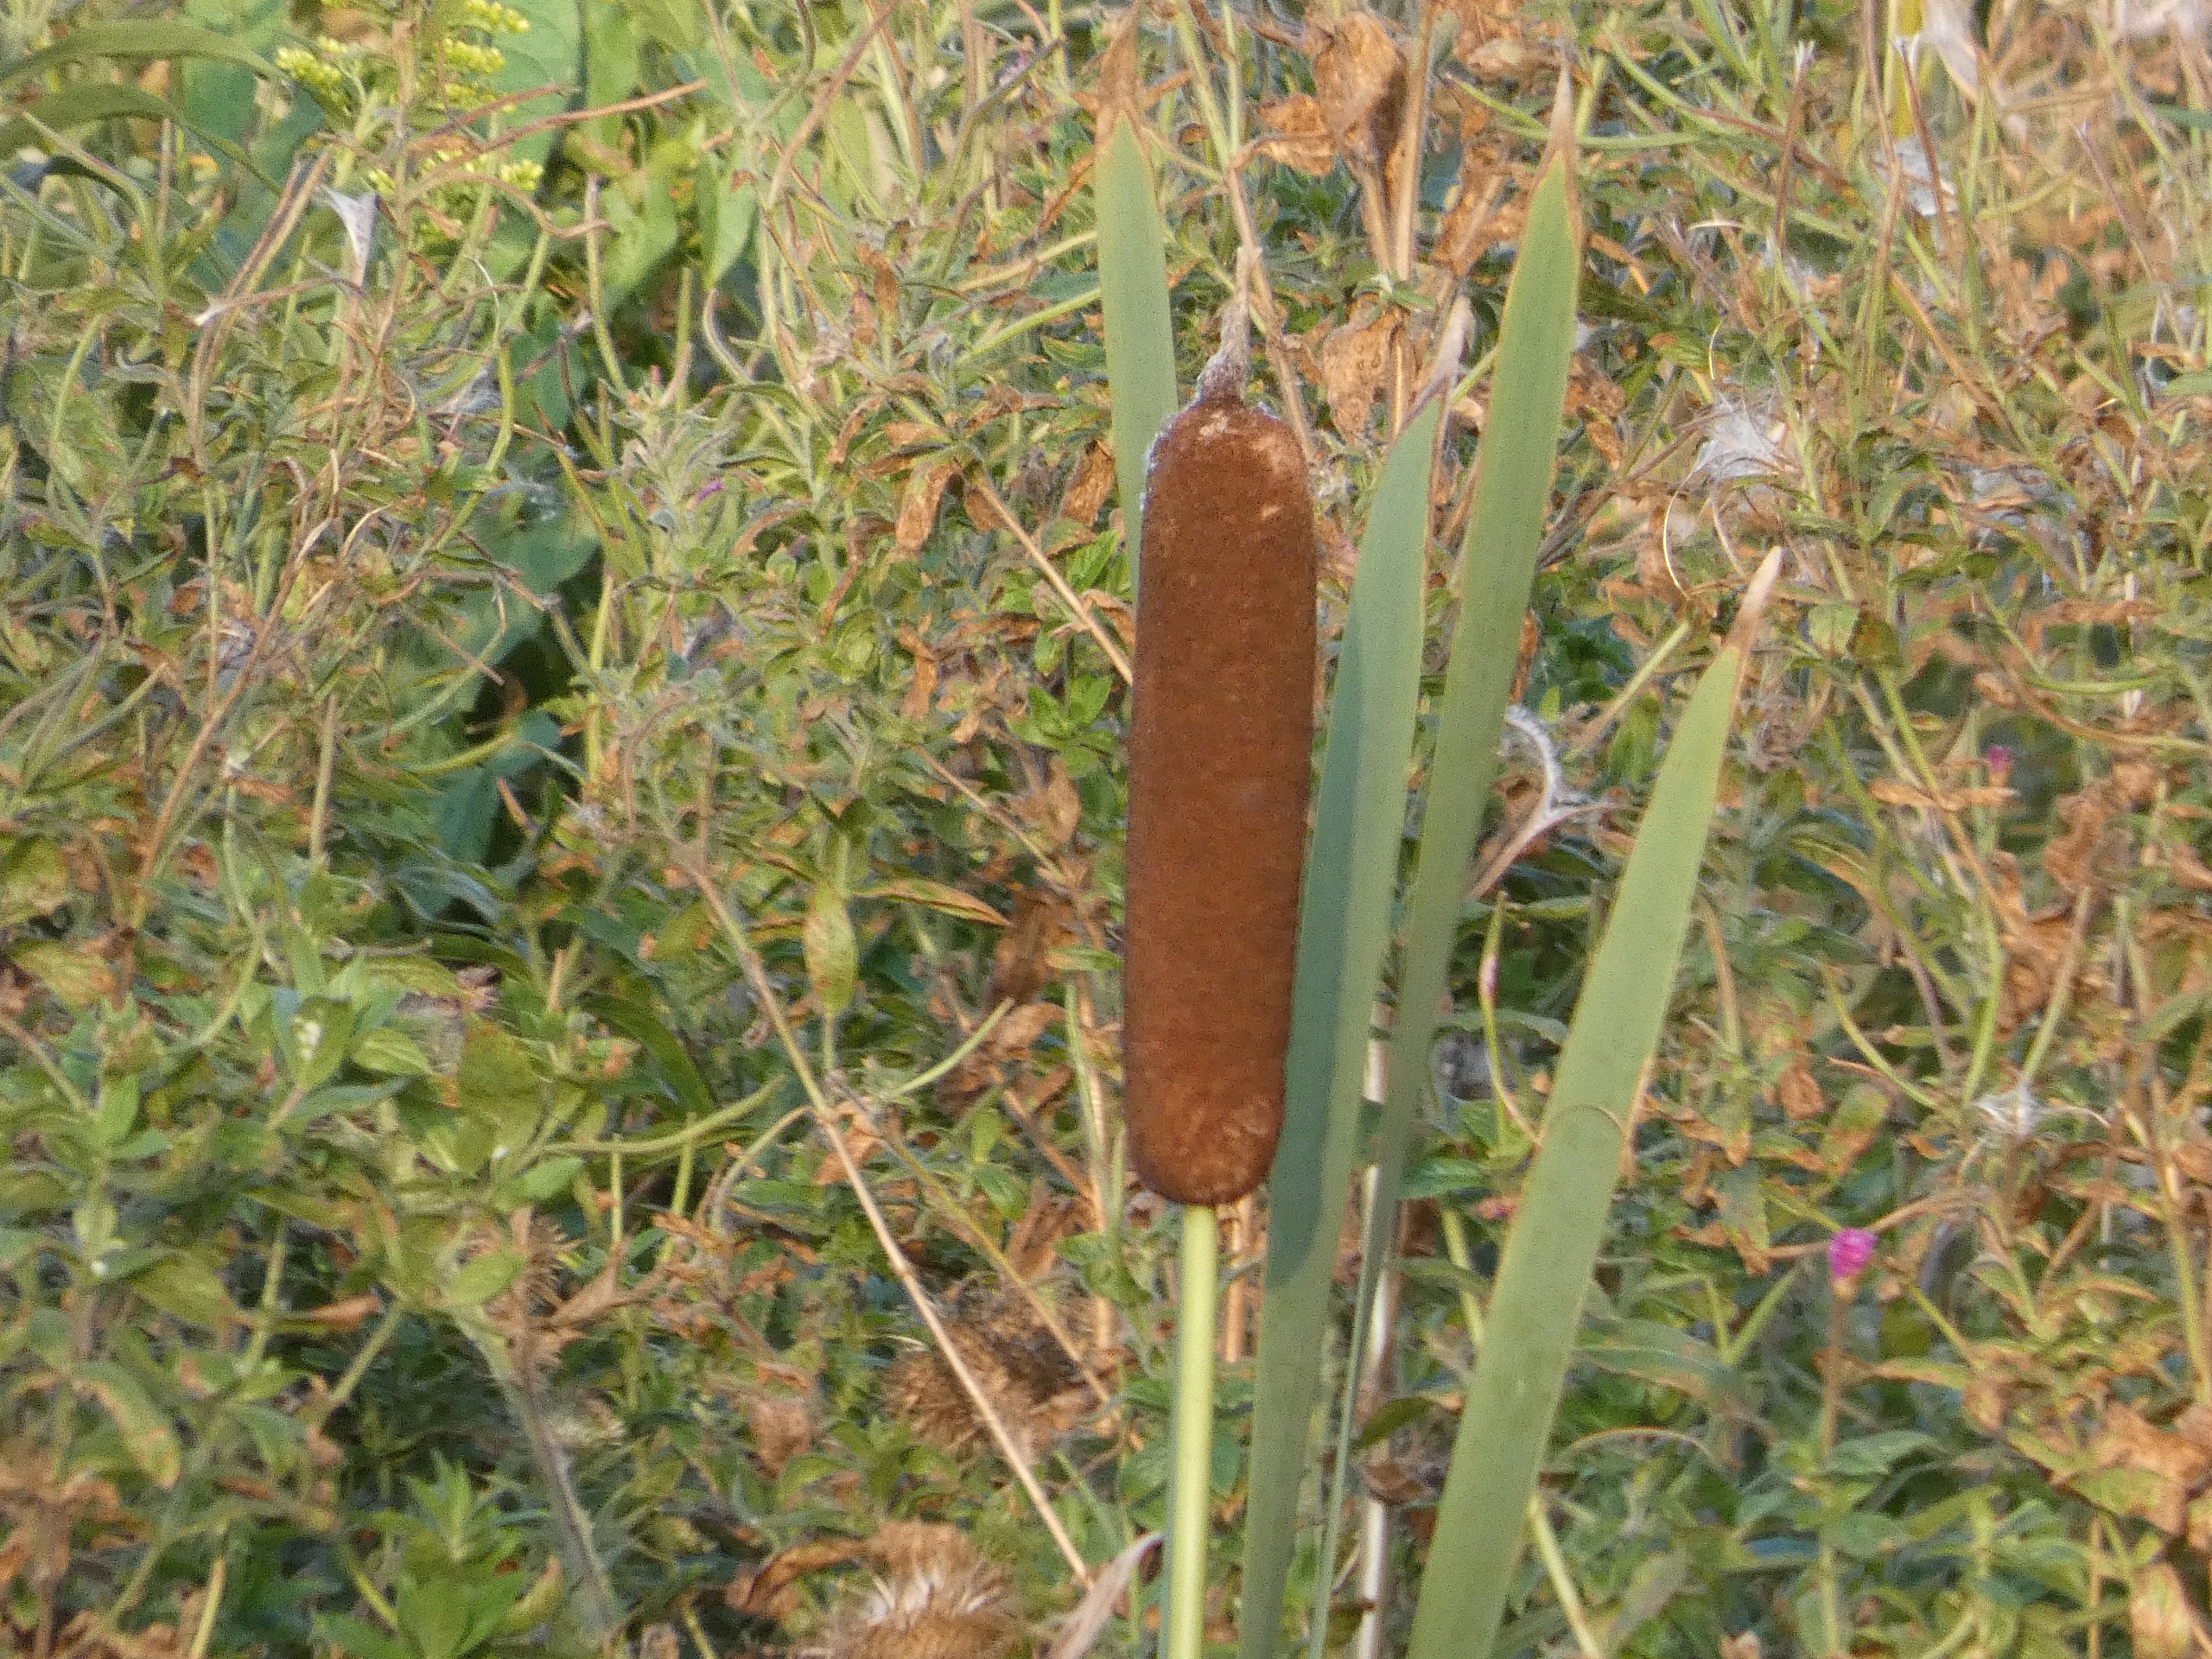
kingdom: Plantae
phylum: Tracheophyta
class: Liliopsida
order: Poales
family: Typhaceae
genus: Typha
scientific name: Typha latifolia
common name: Bredbladet dunhammer
